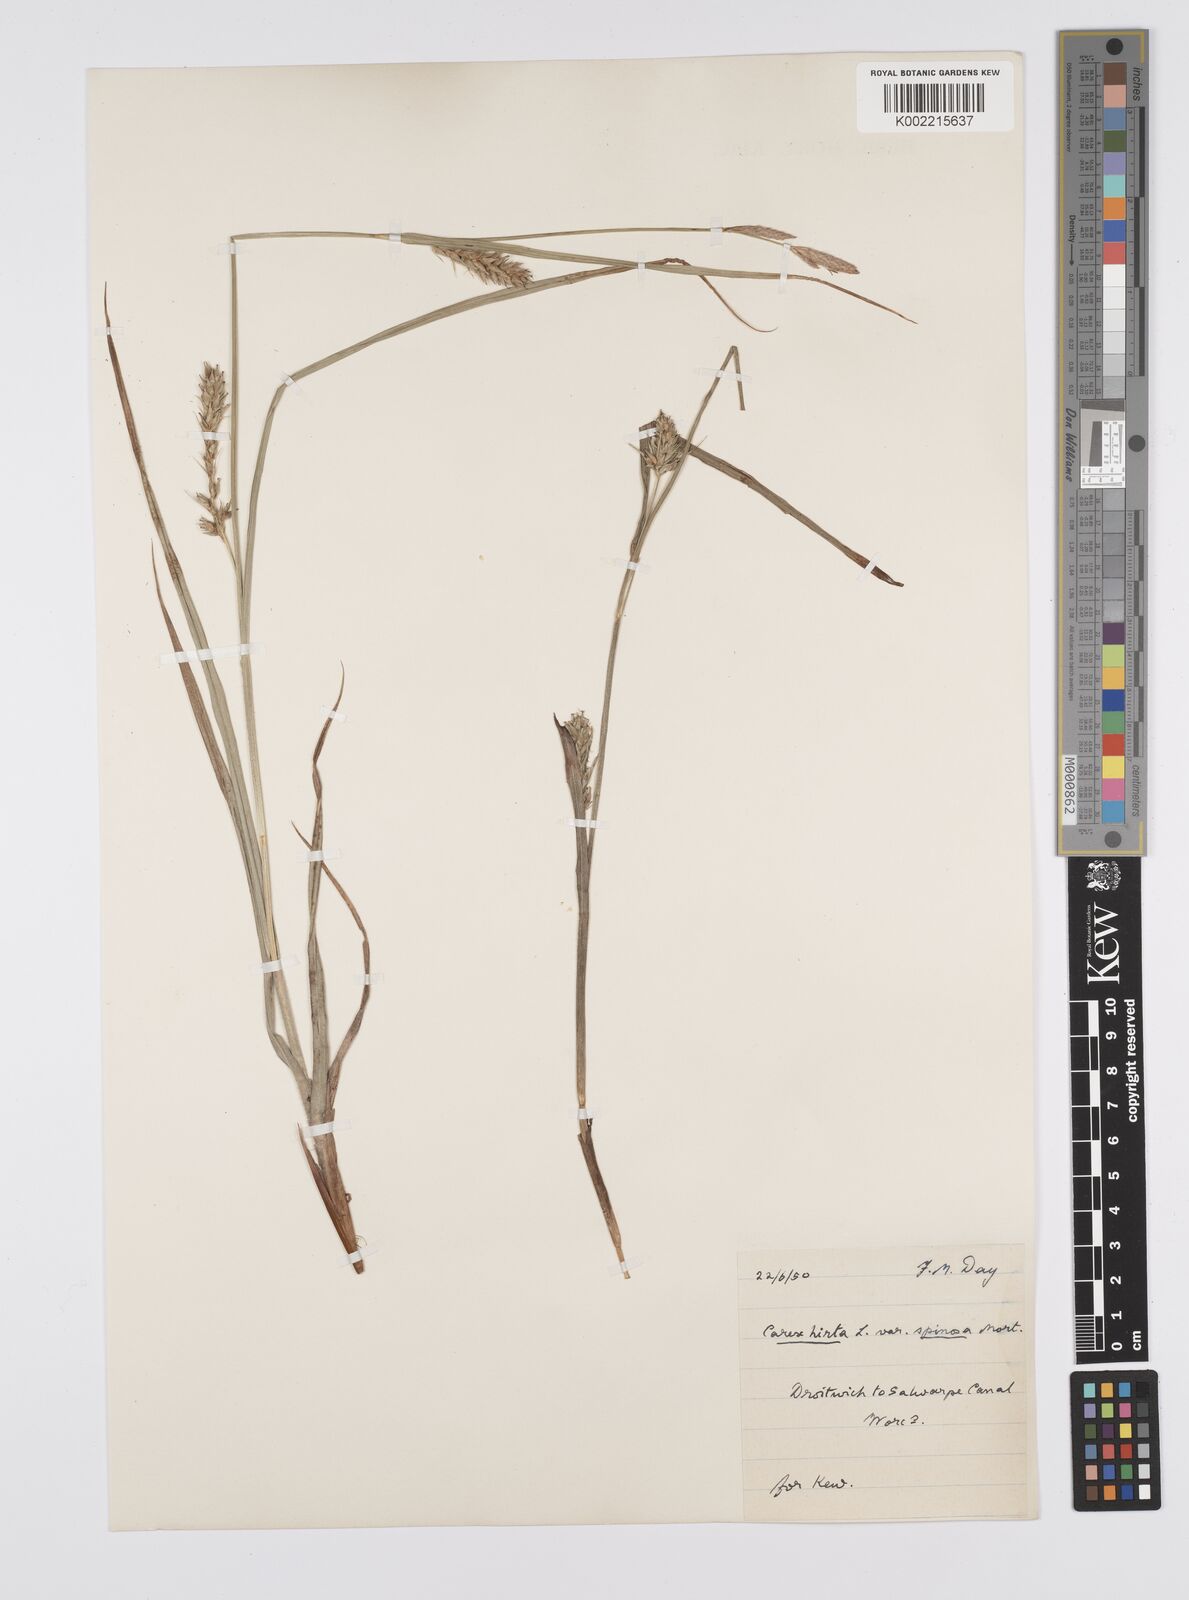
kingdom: Plantae
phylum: Tracheophyta
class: Liliopsida
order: Poales
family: Cyperaceae
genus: Carex
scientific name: Carex hirta
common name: Hairy sedge
